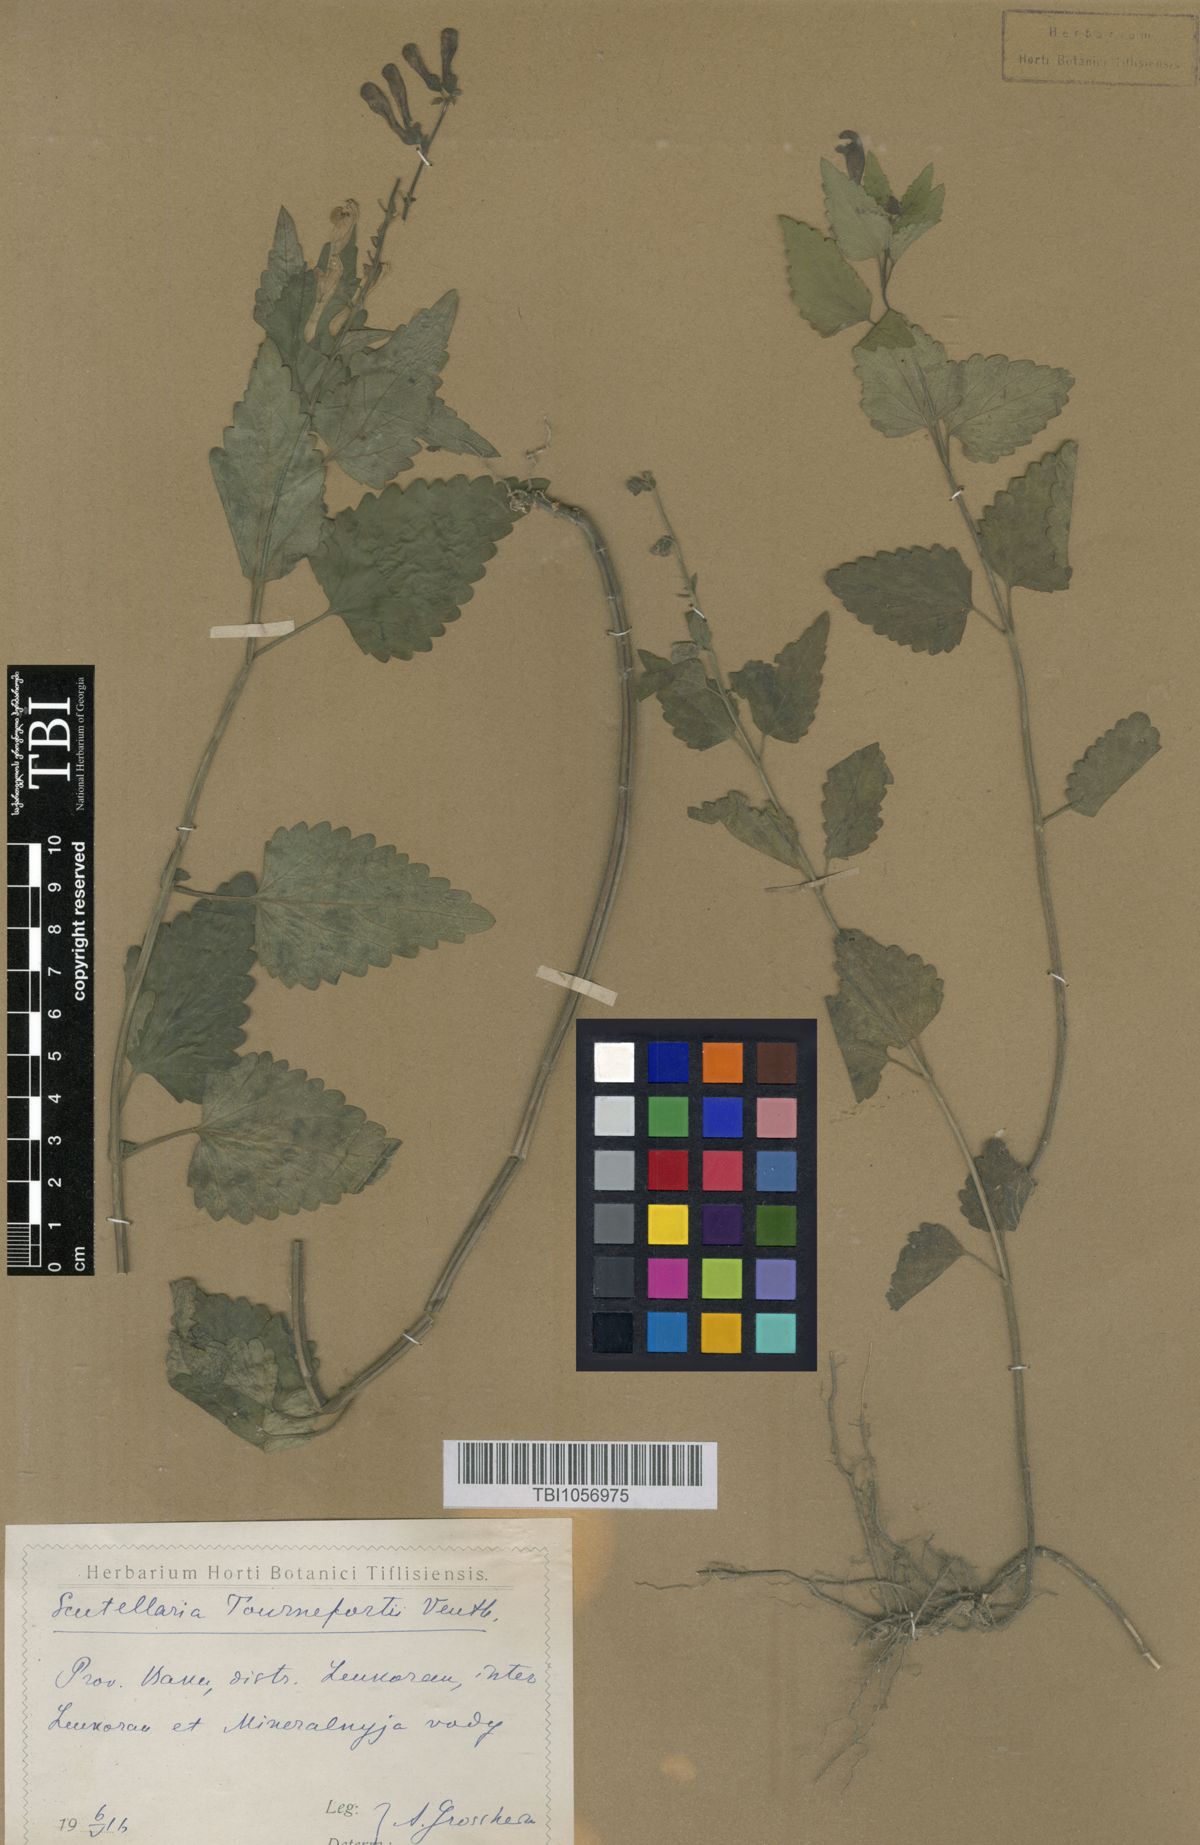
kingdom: Plantae
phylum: Tracheophyta
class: Magnoliopsida
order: Lamiales
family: Lamiaceae
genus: Scutellaria
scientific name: Scutellaria tournefortii
